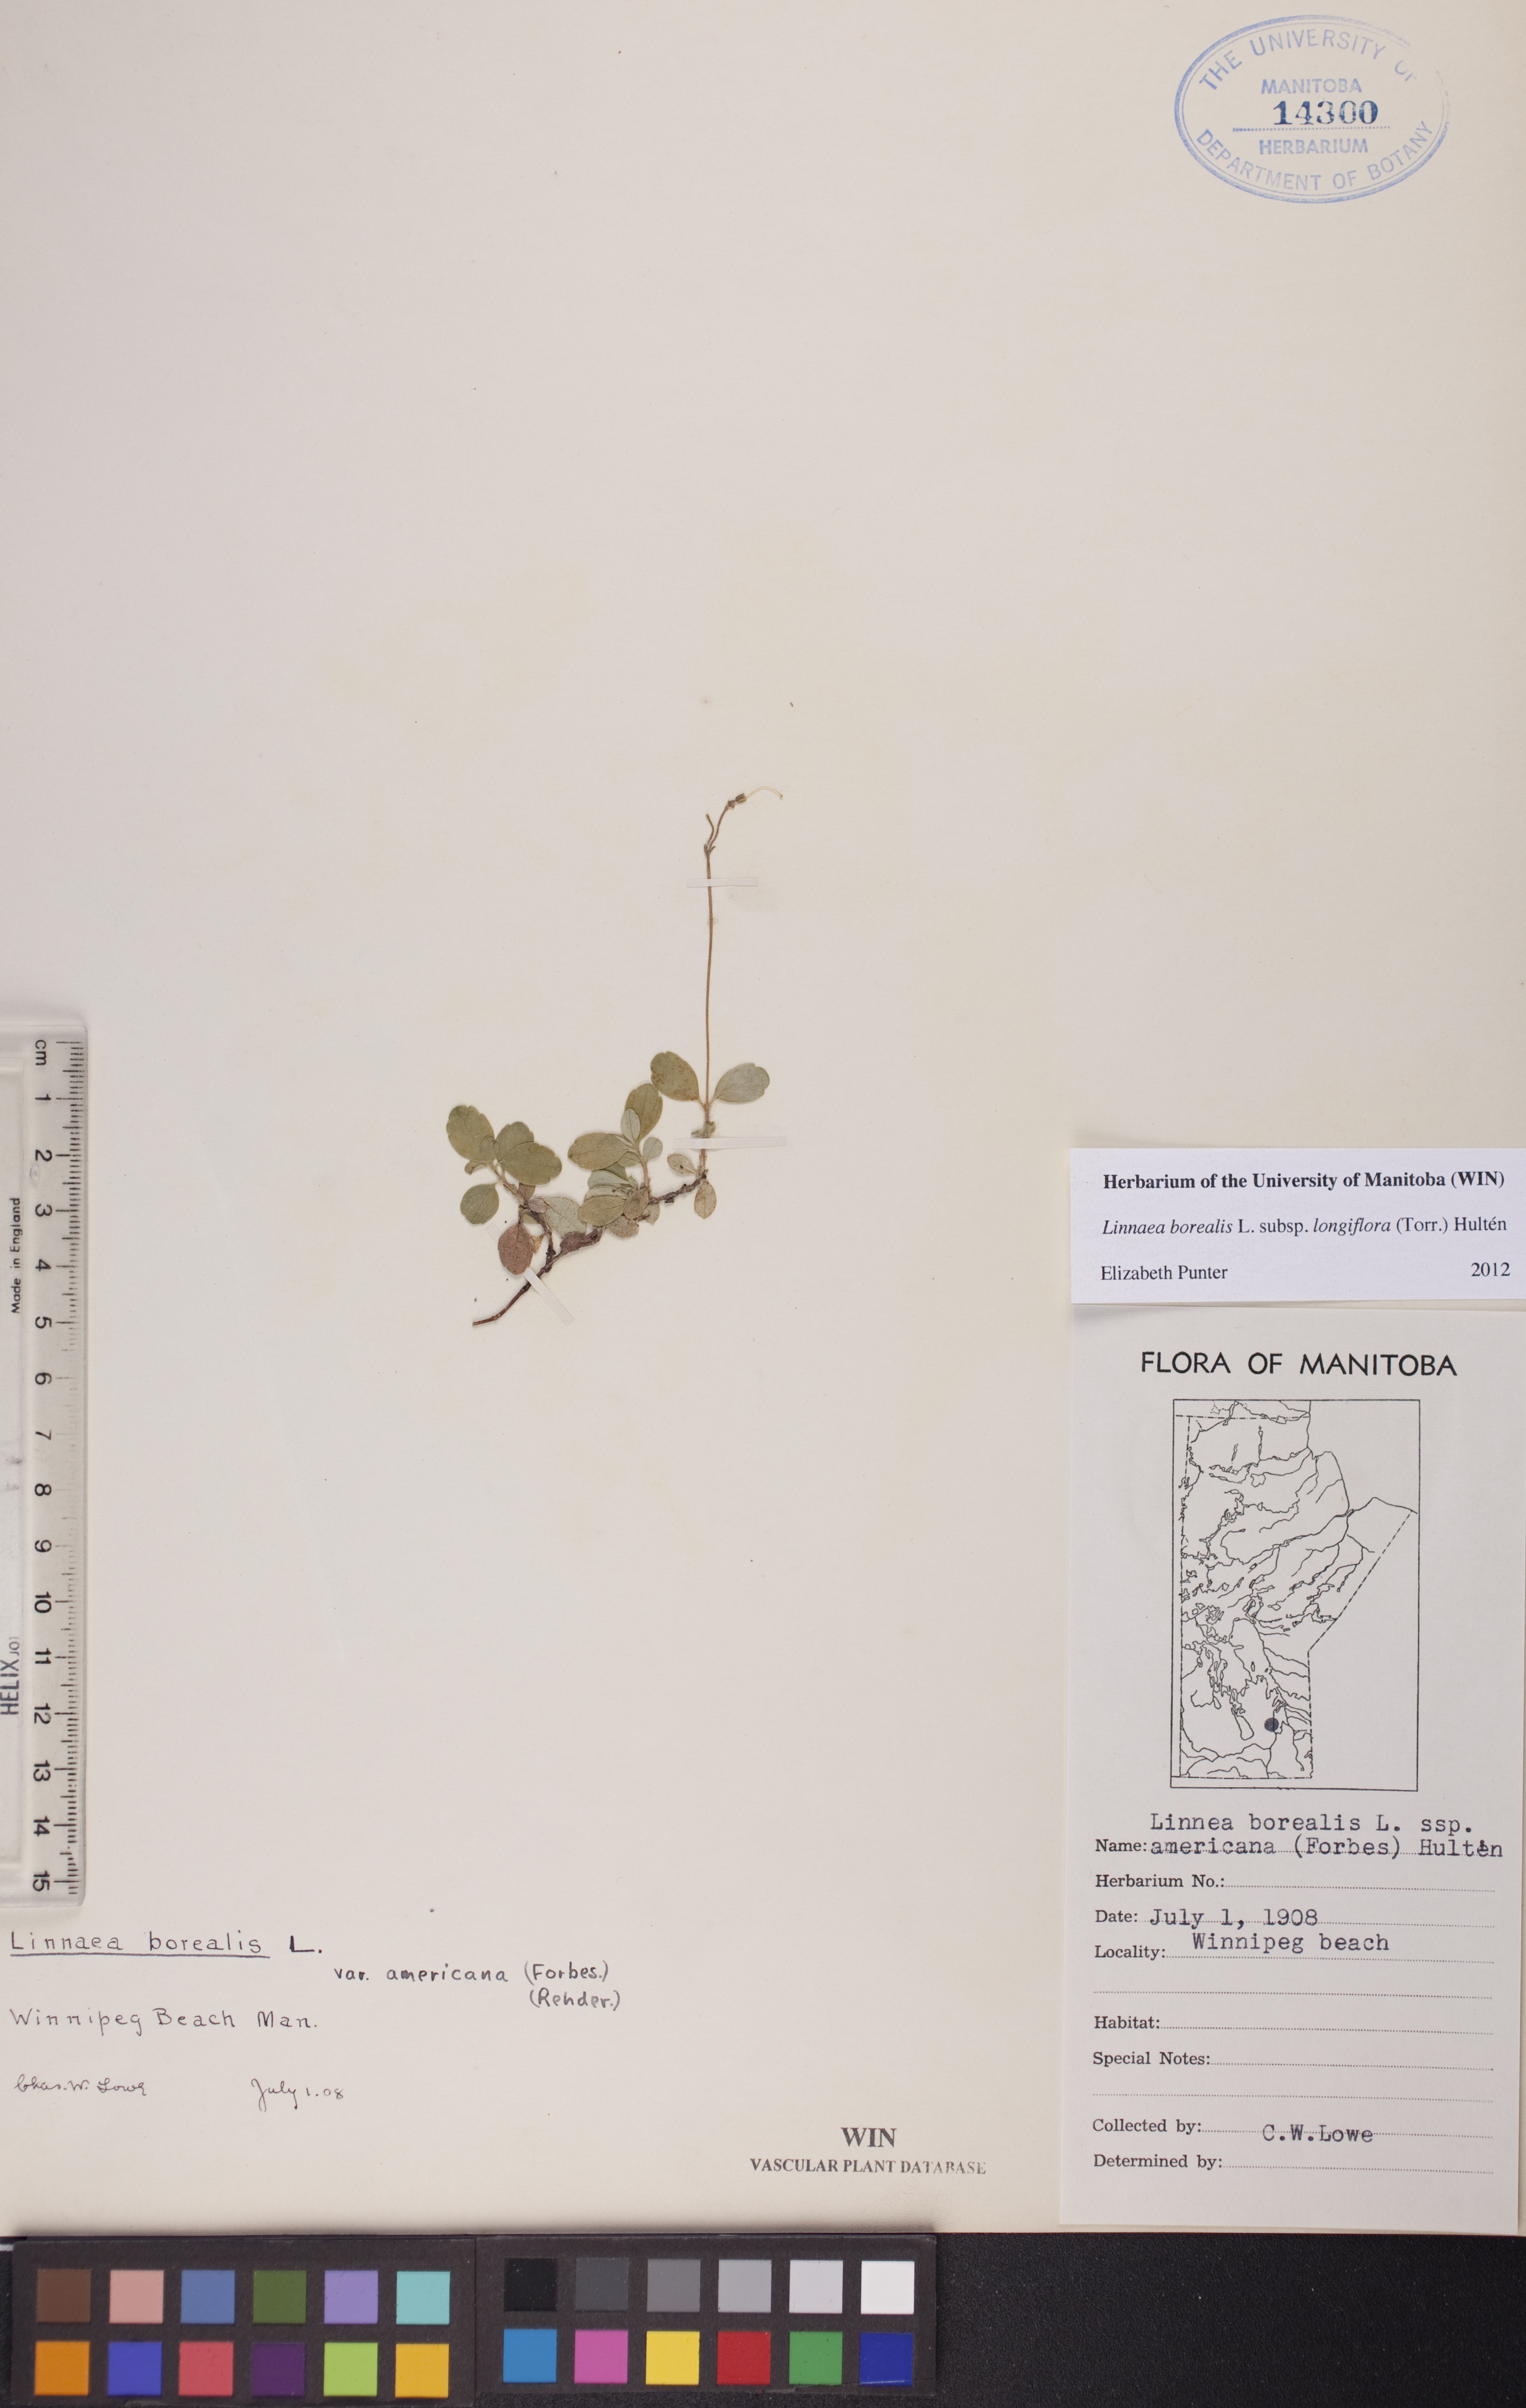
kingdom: Plantae
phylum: Tracheophyta
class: Magnoliopsida
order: Dipsacales
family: Caprifoliaceae
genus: Linnaea
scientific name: Linnaea borealis
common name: Twinflower
